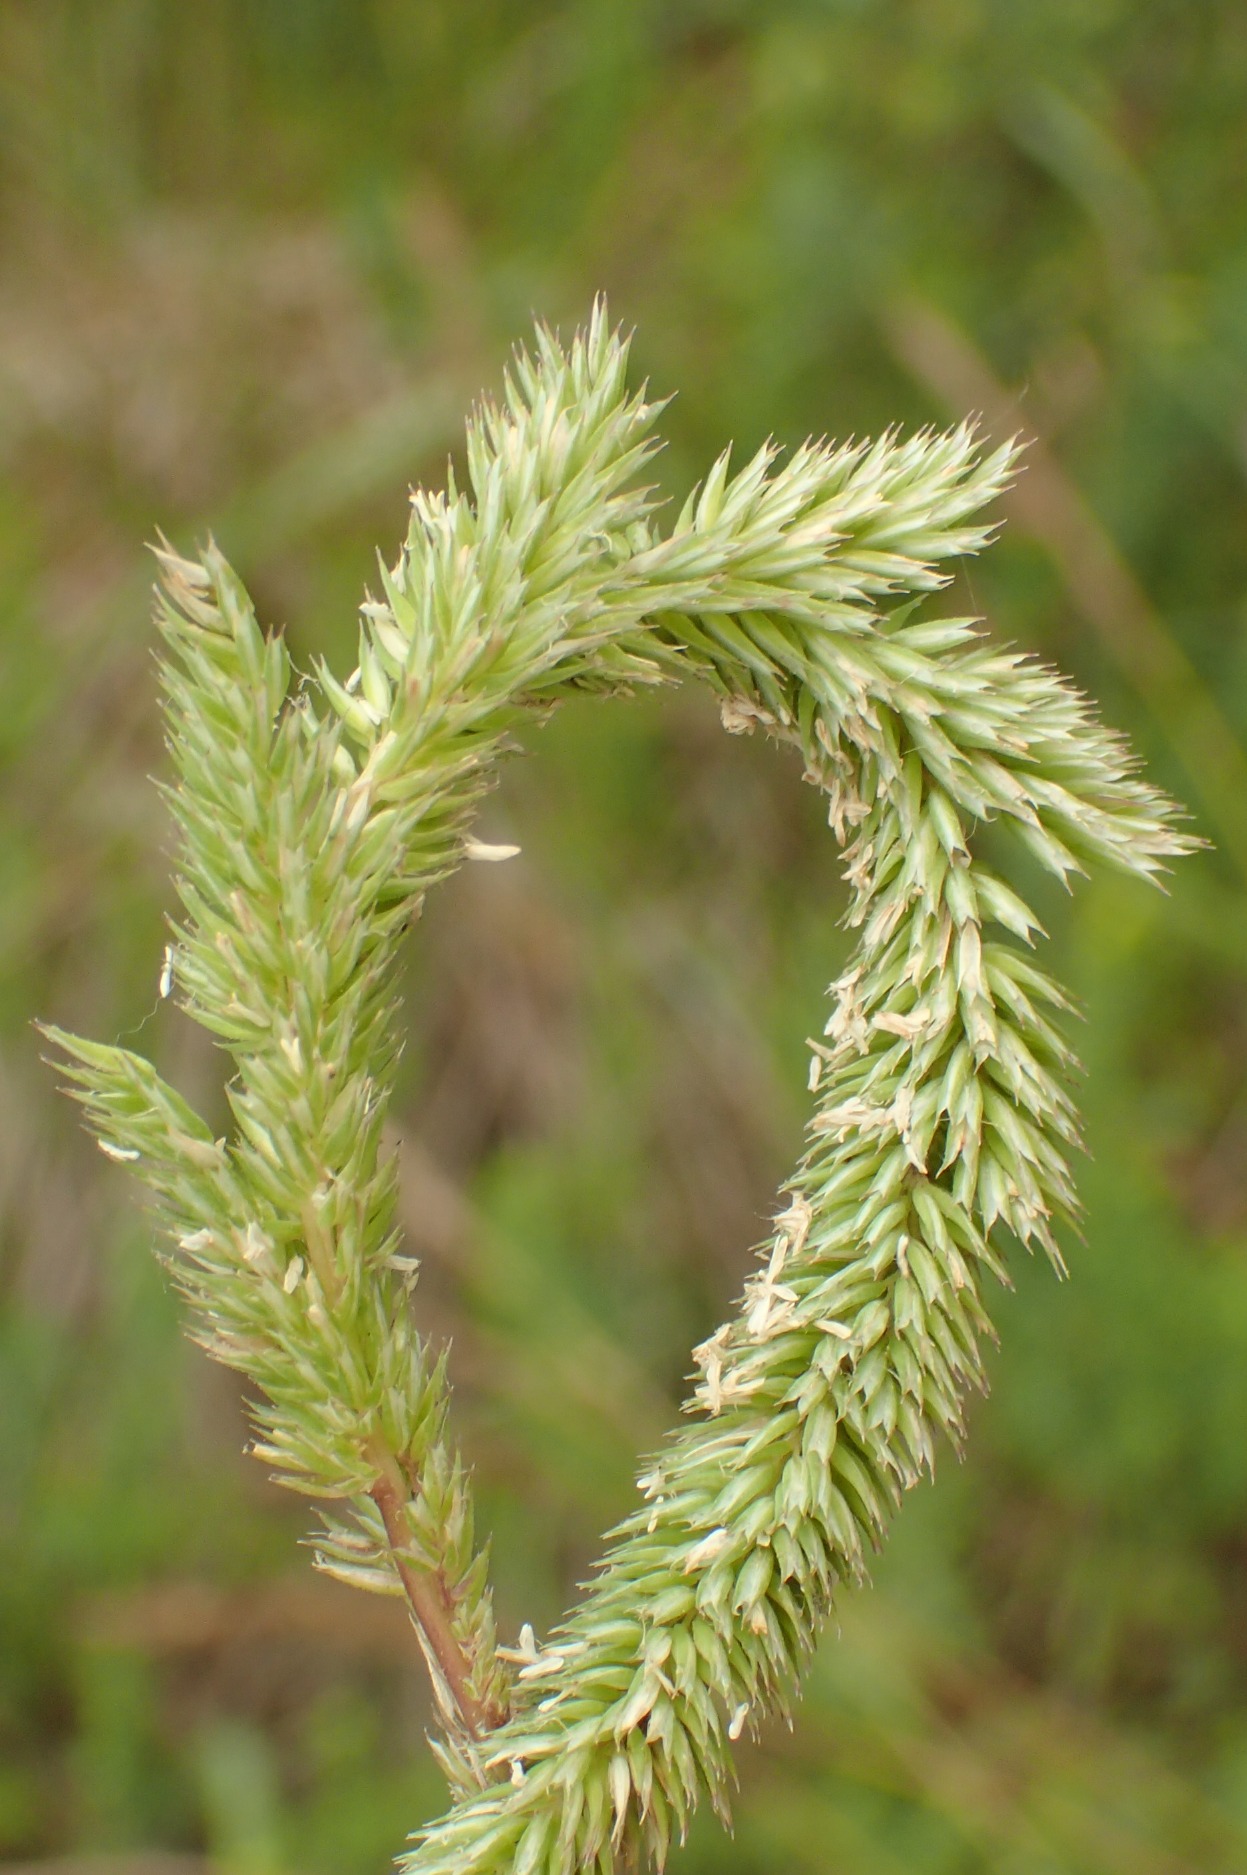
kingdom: Plantae
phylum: Tracheophyta
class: Liliopsida
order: Poales
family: Poaceae
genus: Phleum
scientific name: Phleum phleoides
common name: Glat rottehale
